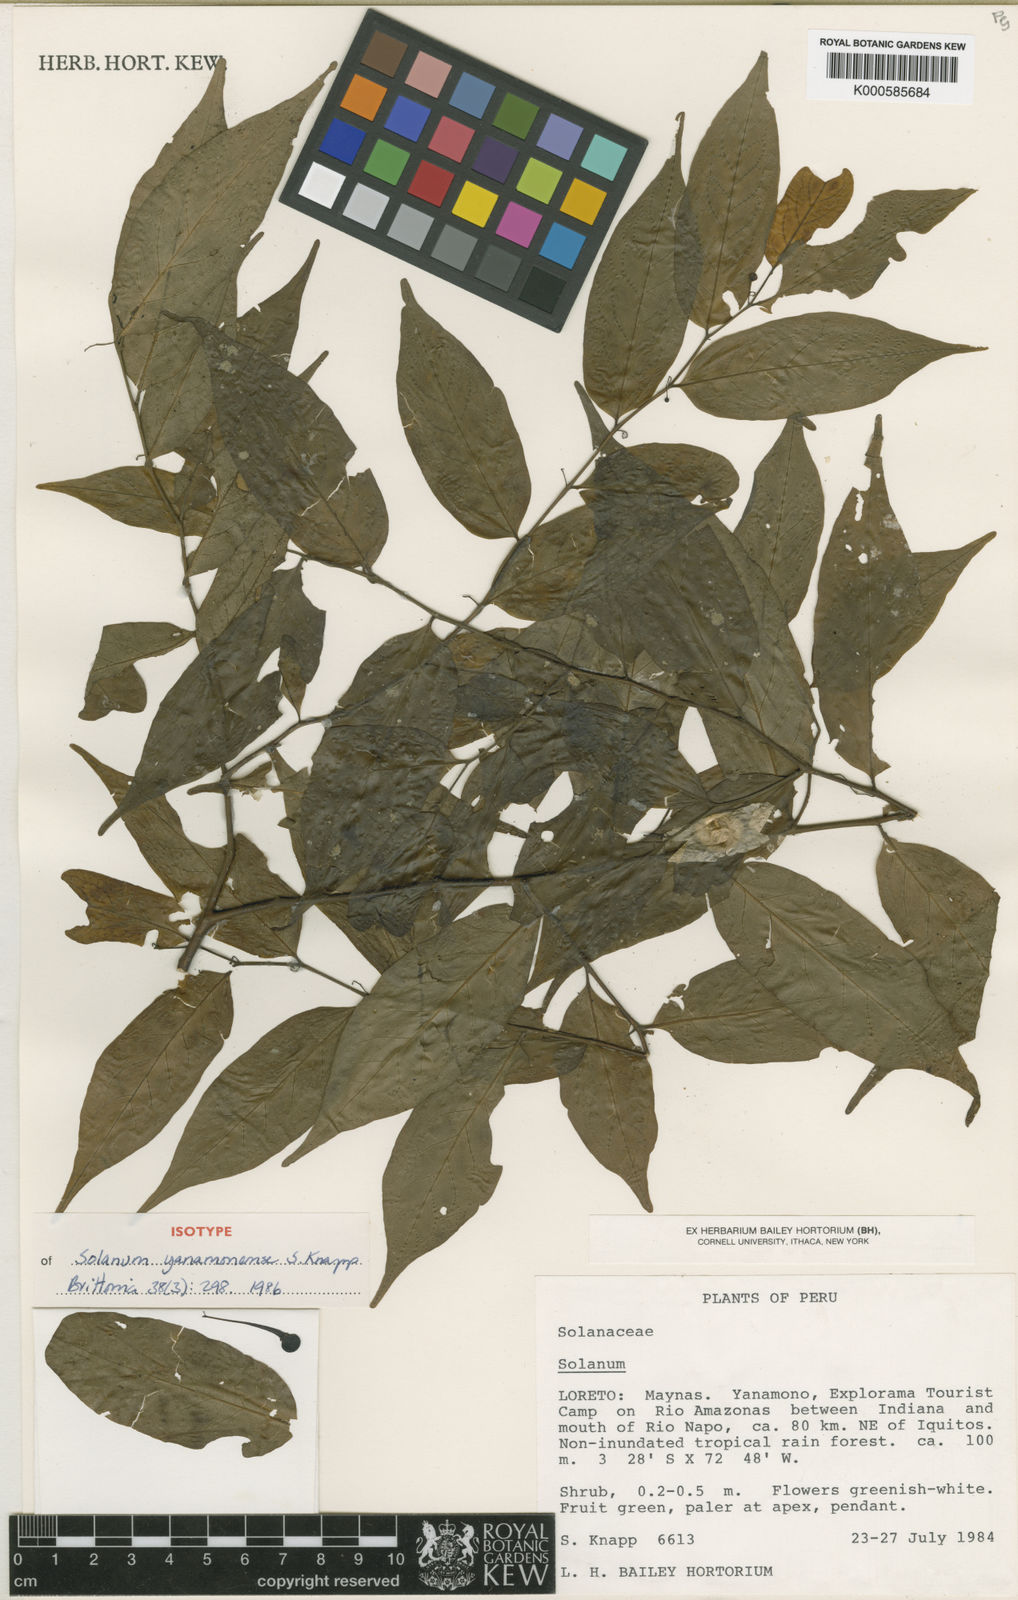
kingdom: Plantae
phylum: Tracheophyta
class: Magnoliopsida
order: Solanales
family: Solanaceae
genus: Solanum
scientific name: Solanum yanamonense
